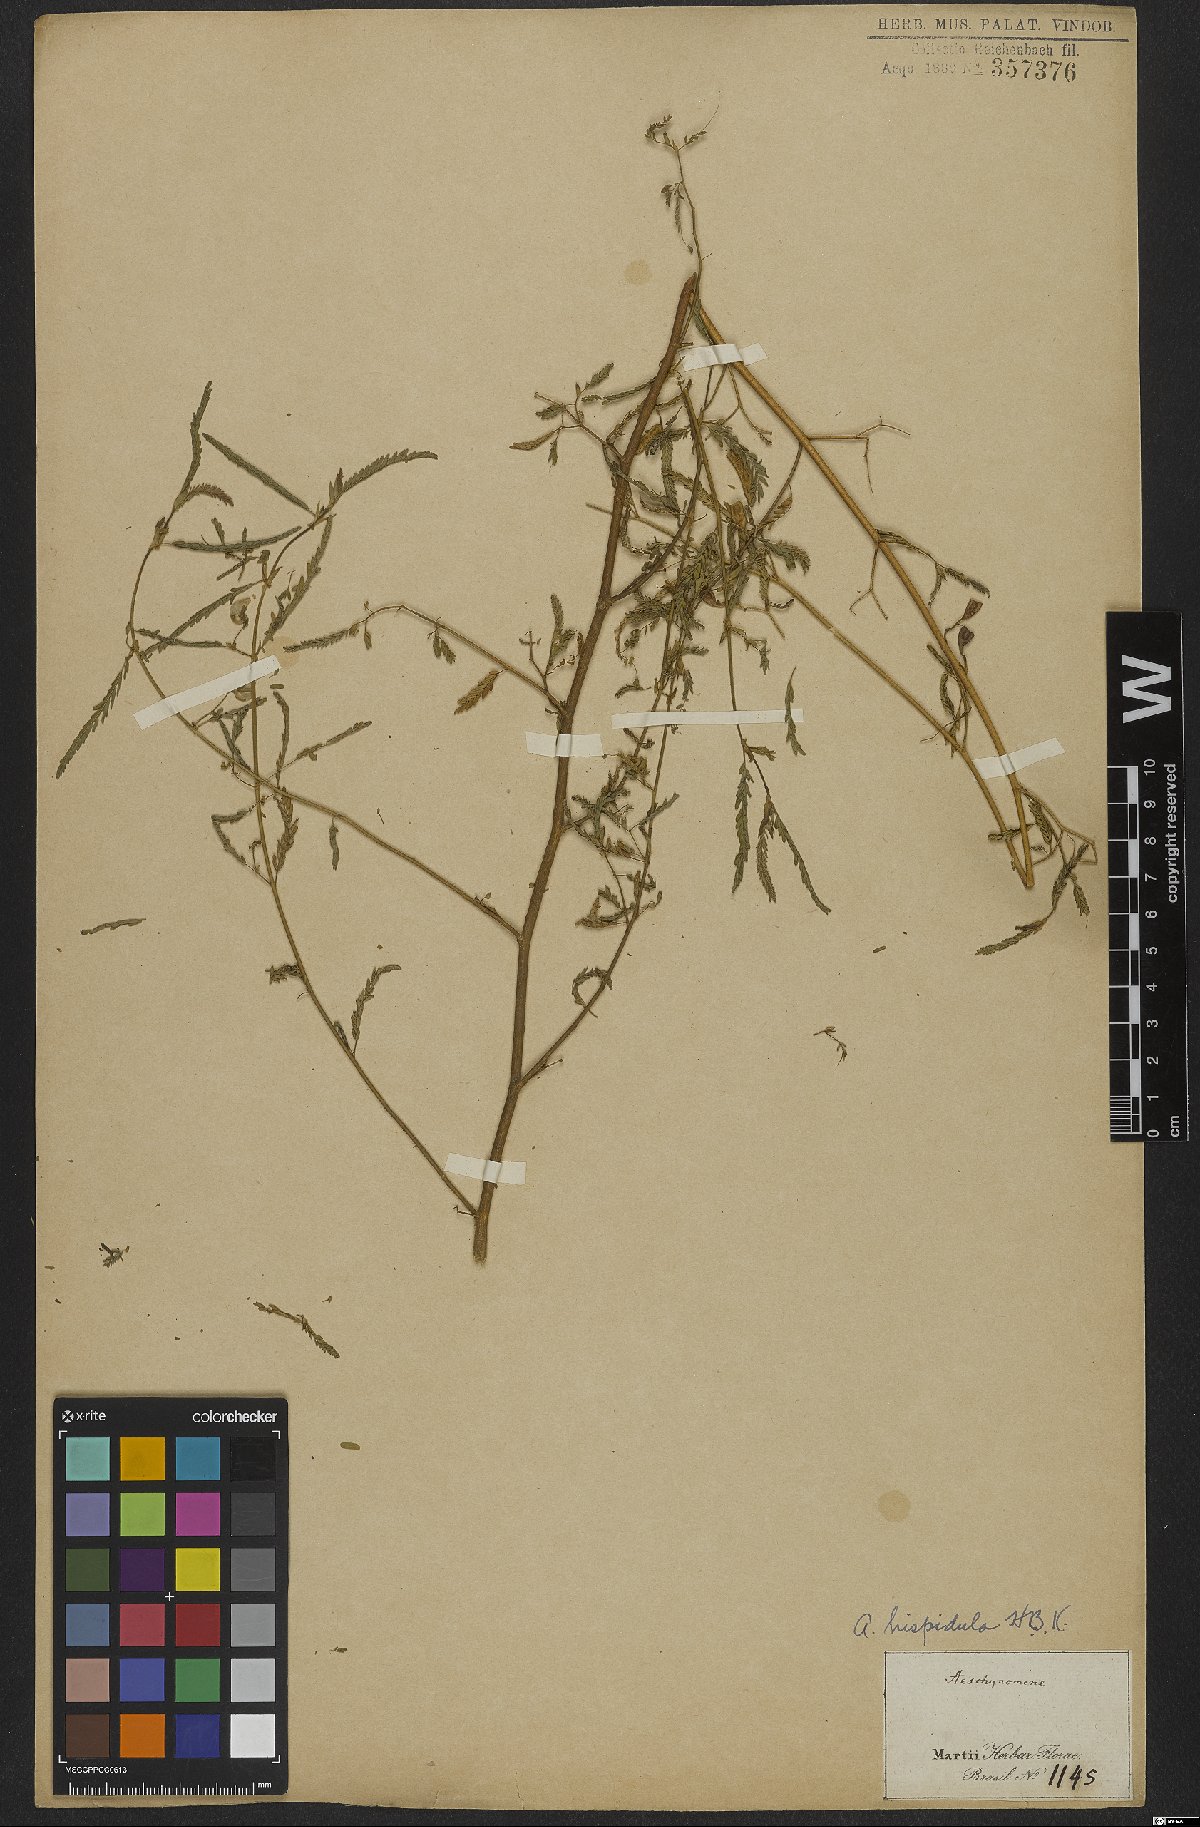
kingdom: Plantae
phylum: Tracheophyta
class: Magnoliopsida
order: Fabales
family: Fabaceae
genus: Aeschynomene
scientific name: Aeschynomene rudis
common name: Rough joint-vetch
